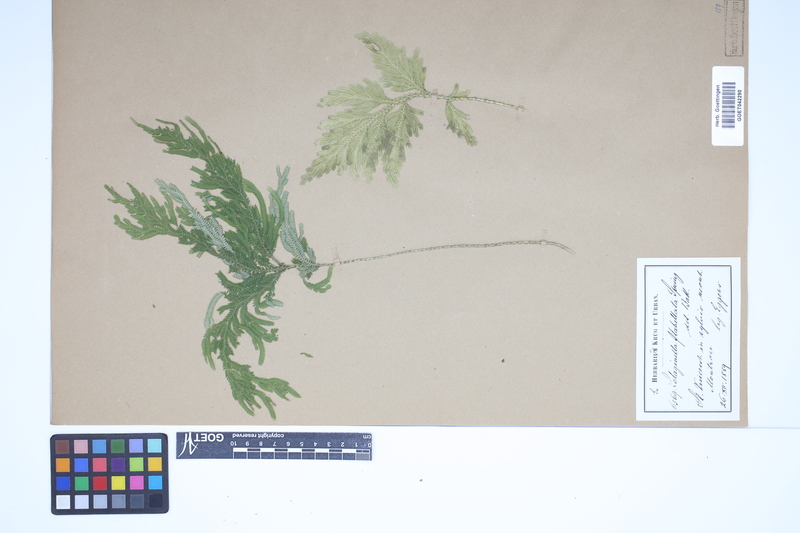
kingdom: Plantae
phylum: Tracheophyta
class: Lycopodiopsida
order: Selaginellales
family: Selaginellaceae
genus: Selaginella
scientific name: Selaginella flabellata
